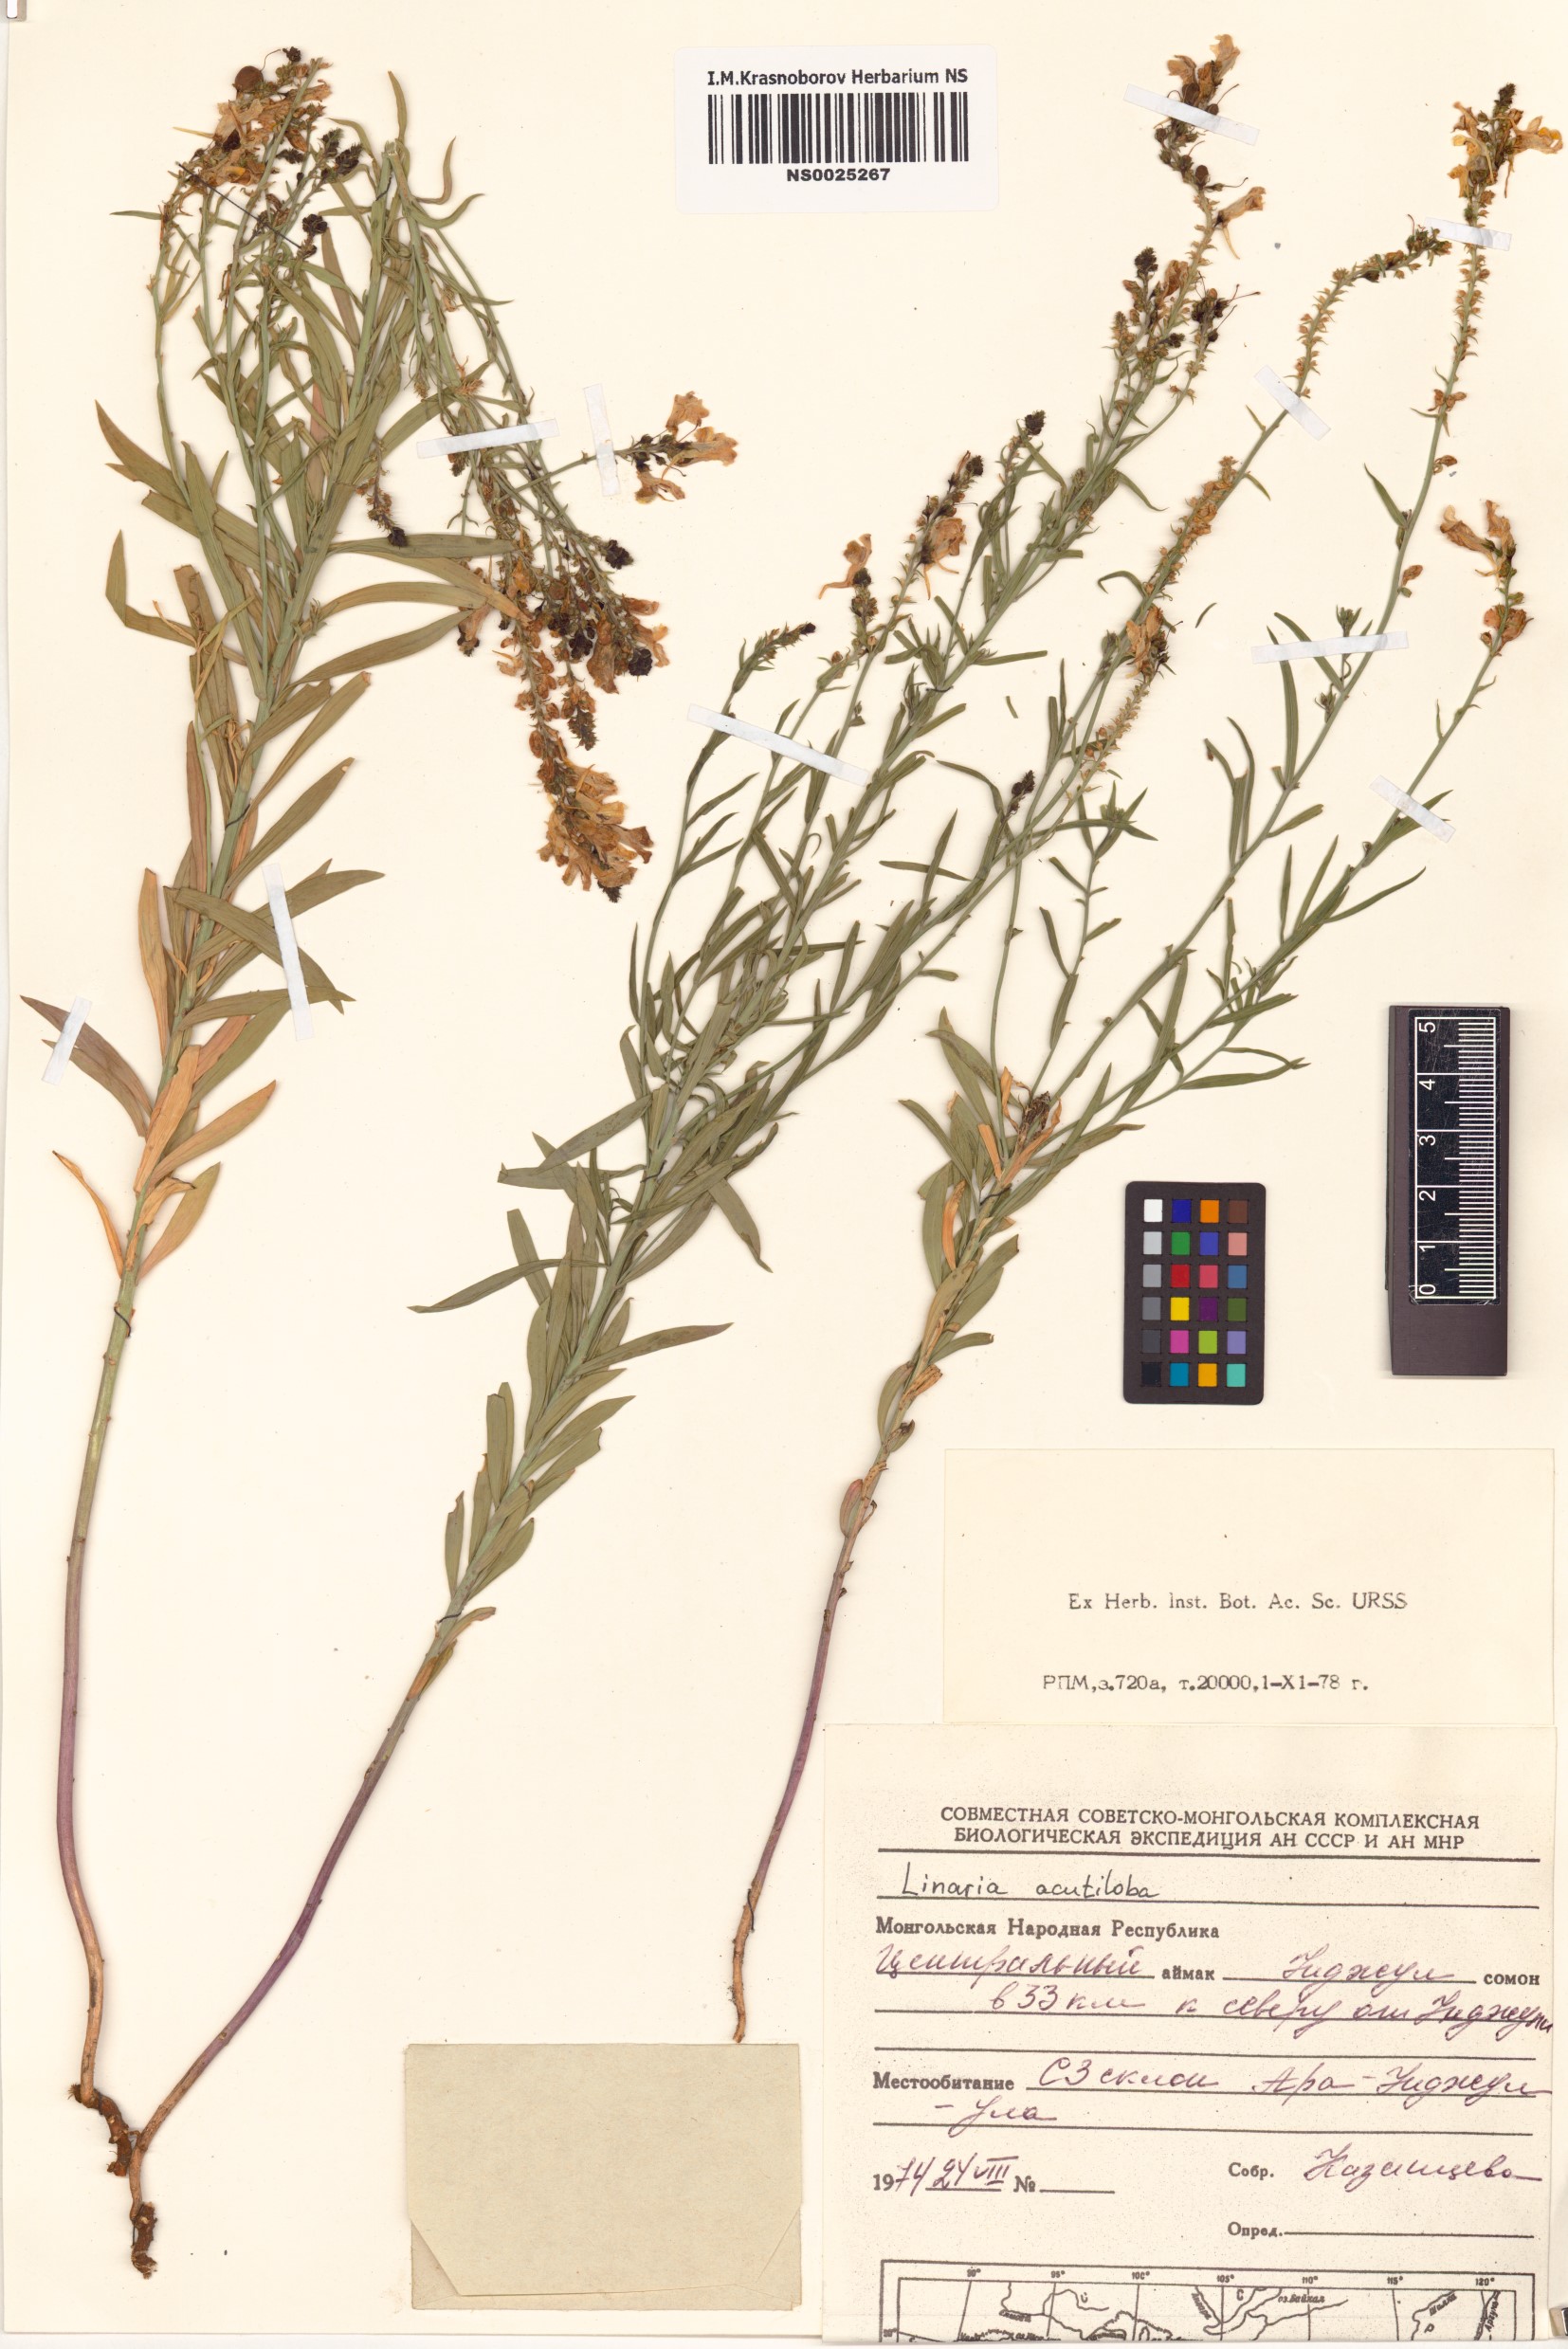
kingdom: Plantae
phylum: Tracheophyta
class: Magnoliopsida
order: Lamiales
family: Plantaginaceae
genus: Linaria
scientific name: Linaria acutiloba
